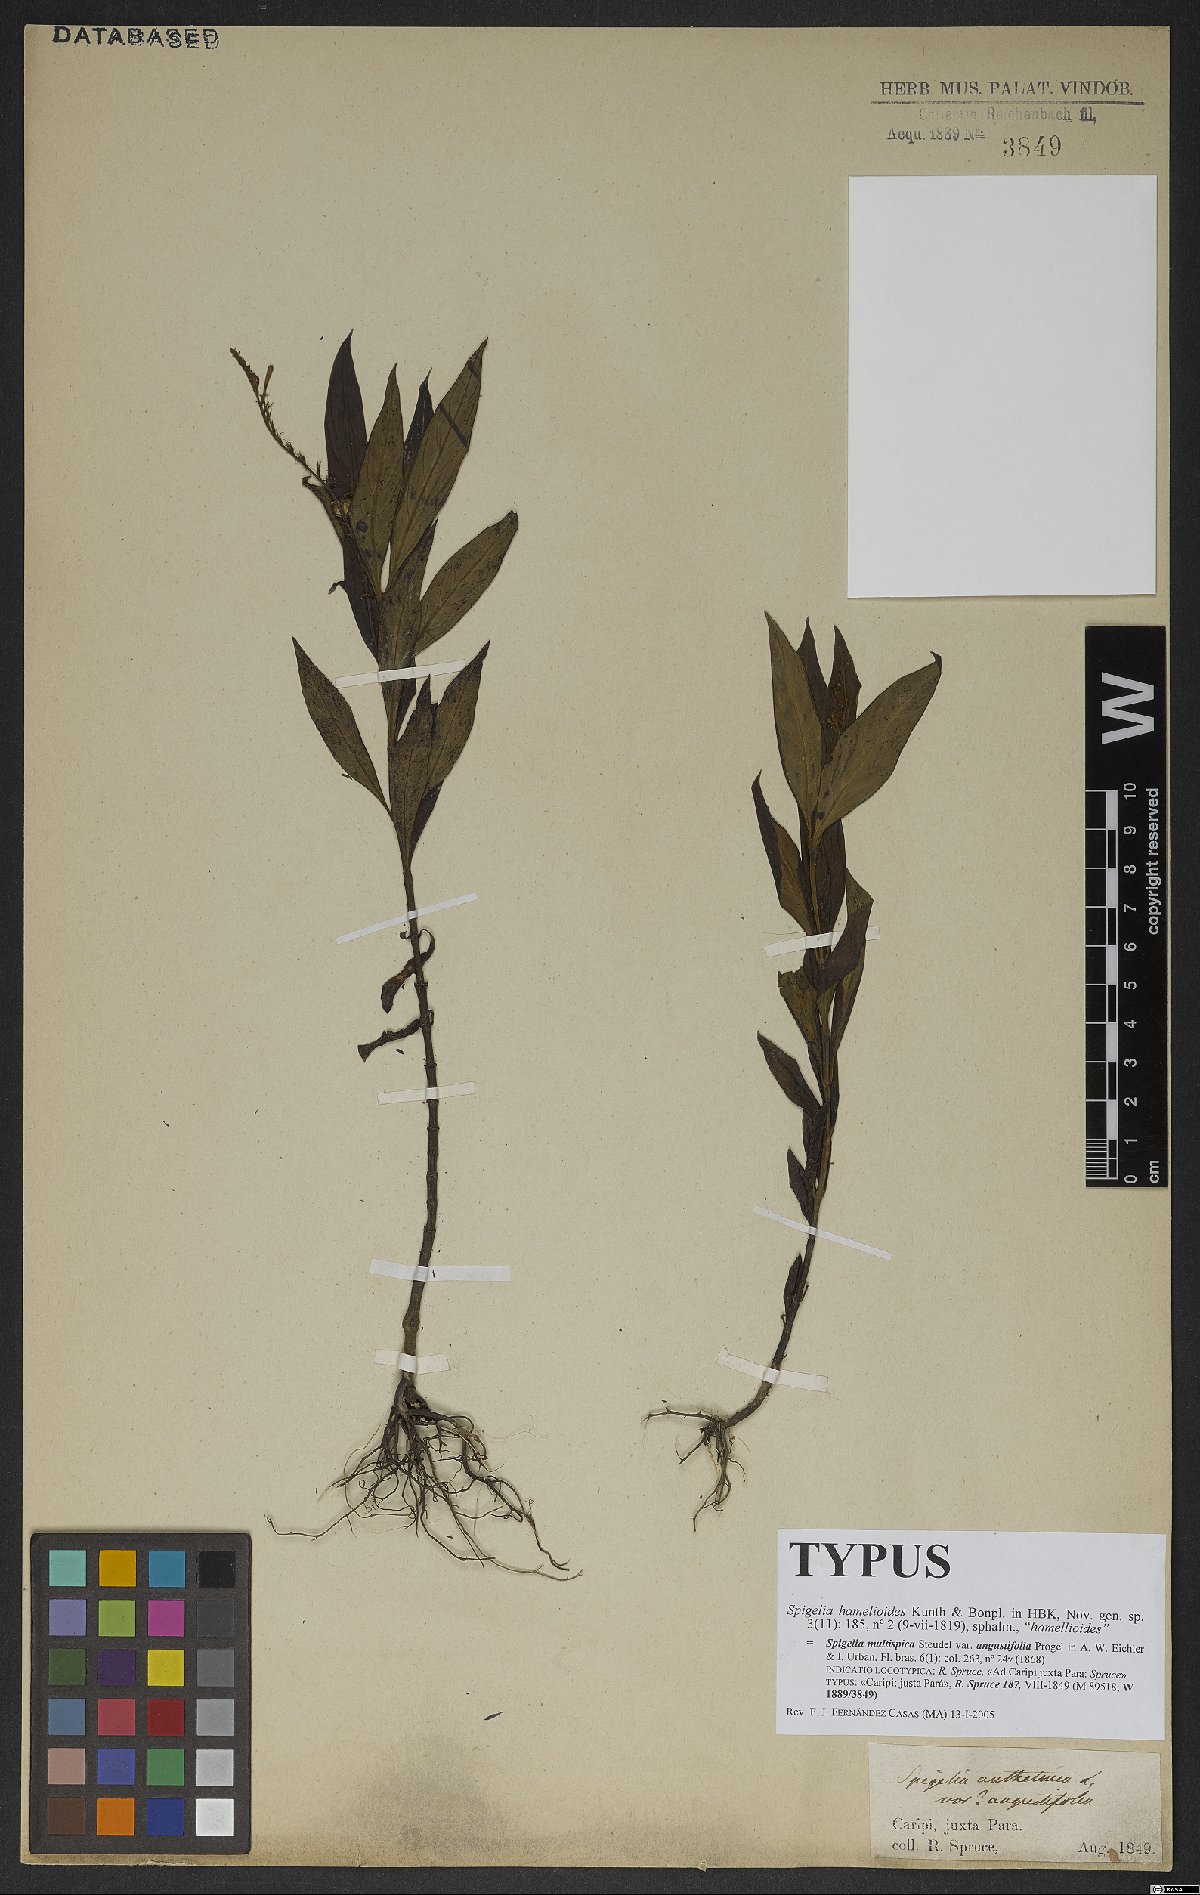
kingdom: Plantae
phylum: Tracheophyta
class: Magnoliopsida
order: Gentianales
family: Loganiaceae
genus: Spigelia
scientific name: Spigelia hamellioides
